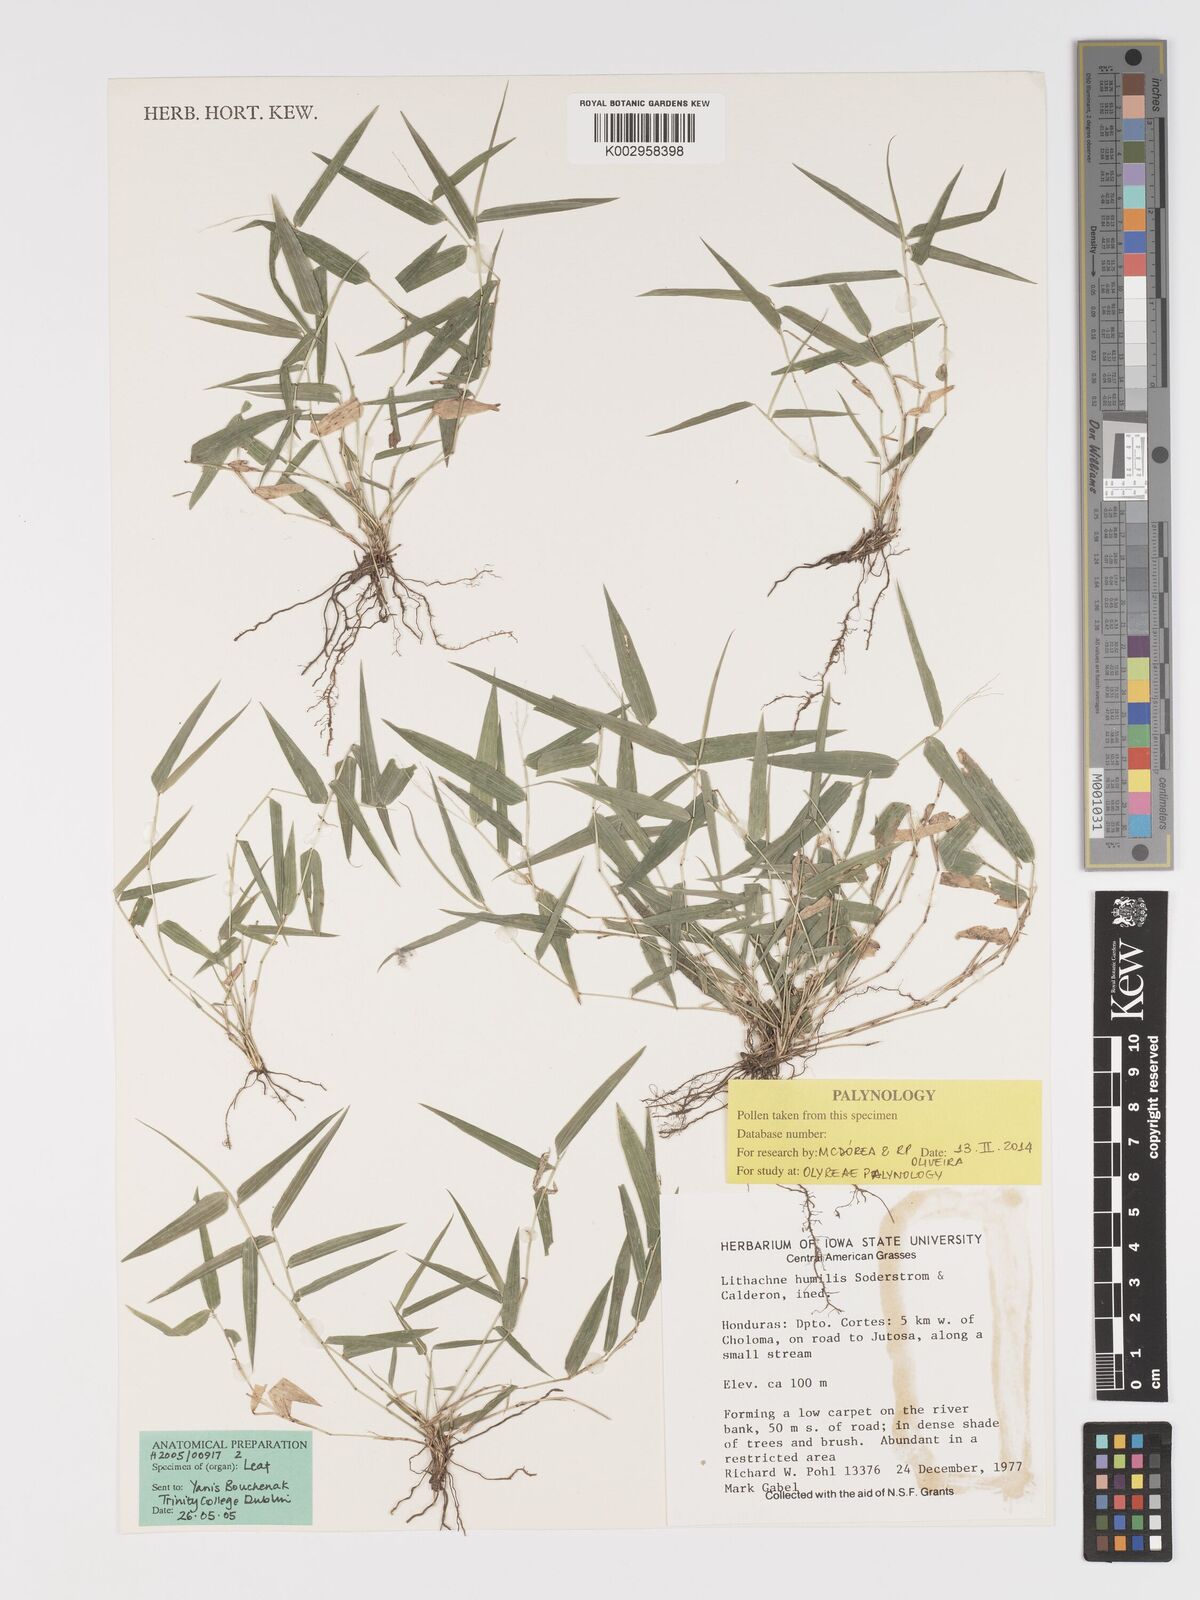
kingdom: Plantae
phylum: Tracheophyta
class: Liliopsida
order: Poales
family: Poaceae
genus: Lithachne
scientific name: Lithachne humilis
